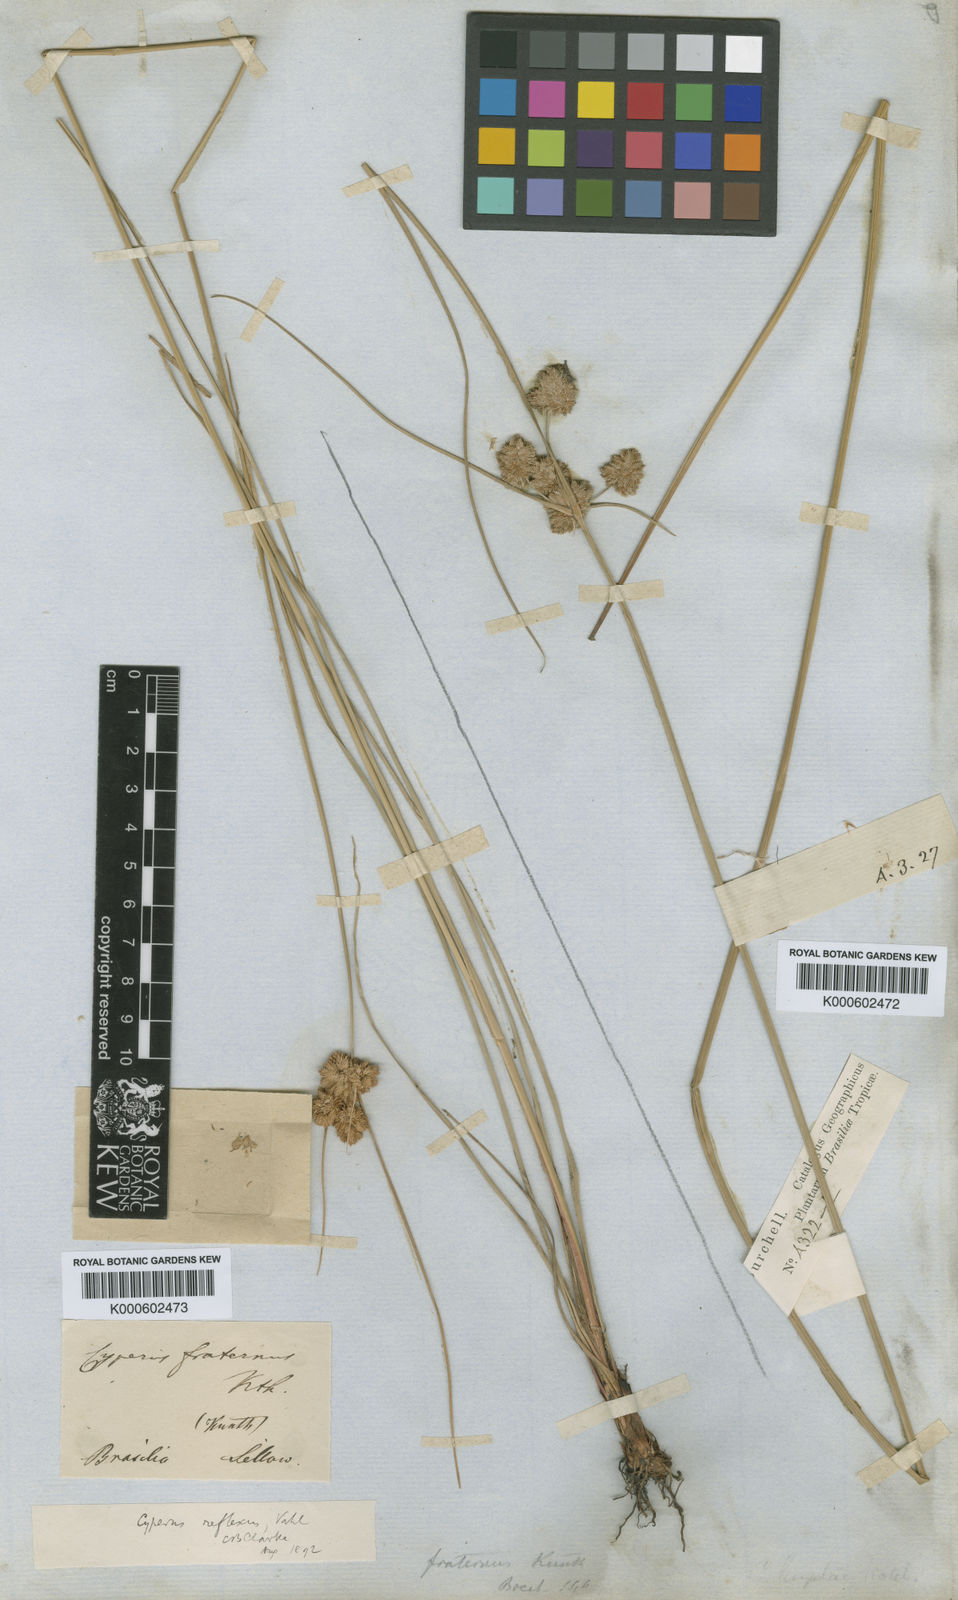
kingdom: Plantae
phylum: Tracheophyta
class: Liliopsida
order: Poales
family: Cyperaceae
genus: Cyperus
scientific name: Cyperus reflexus
